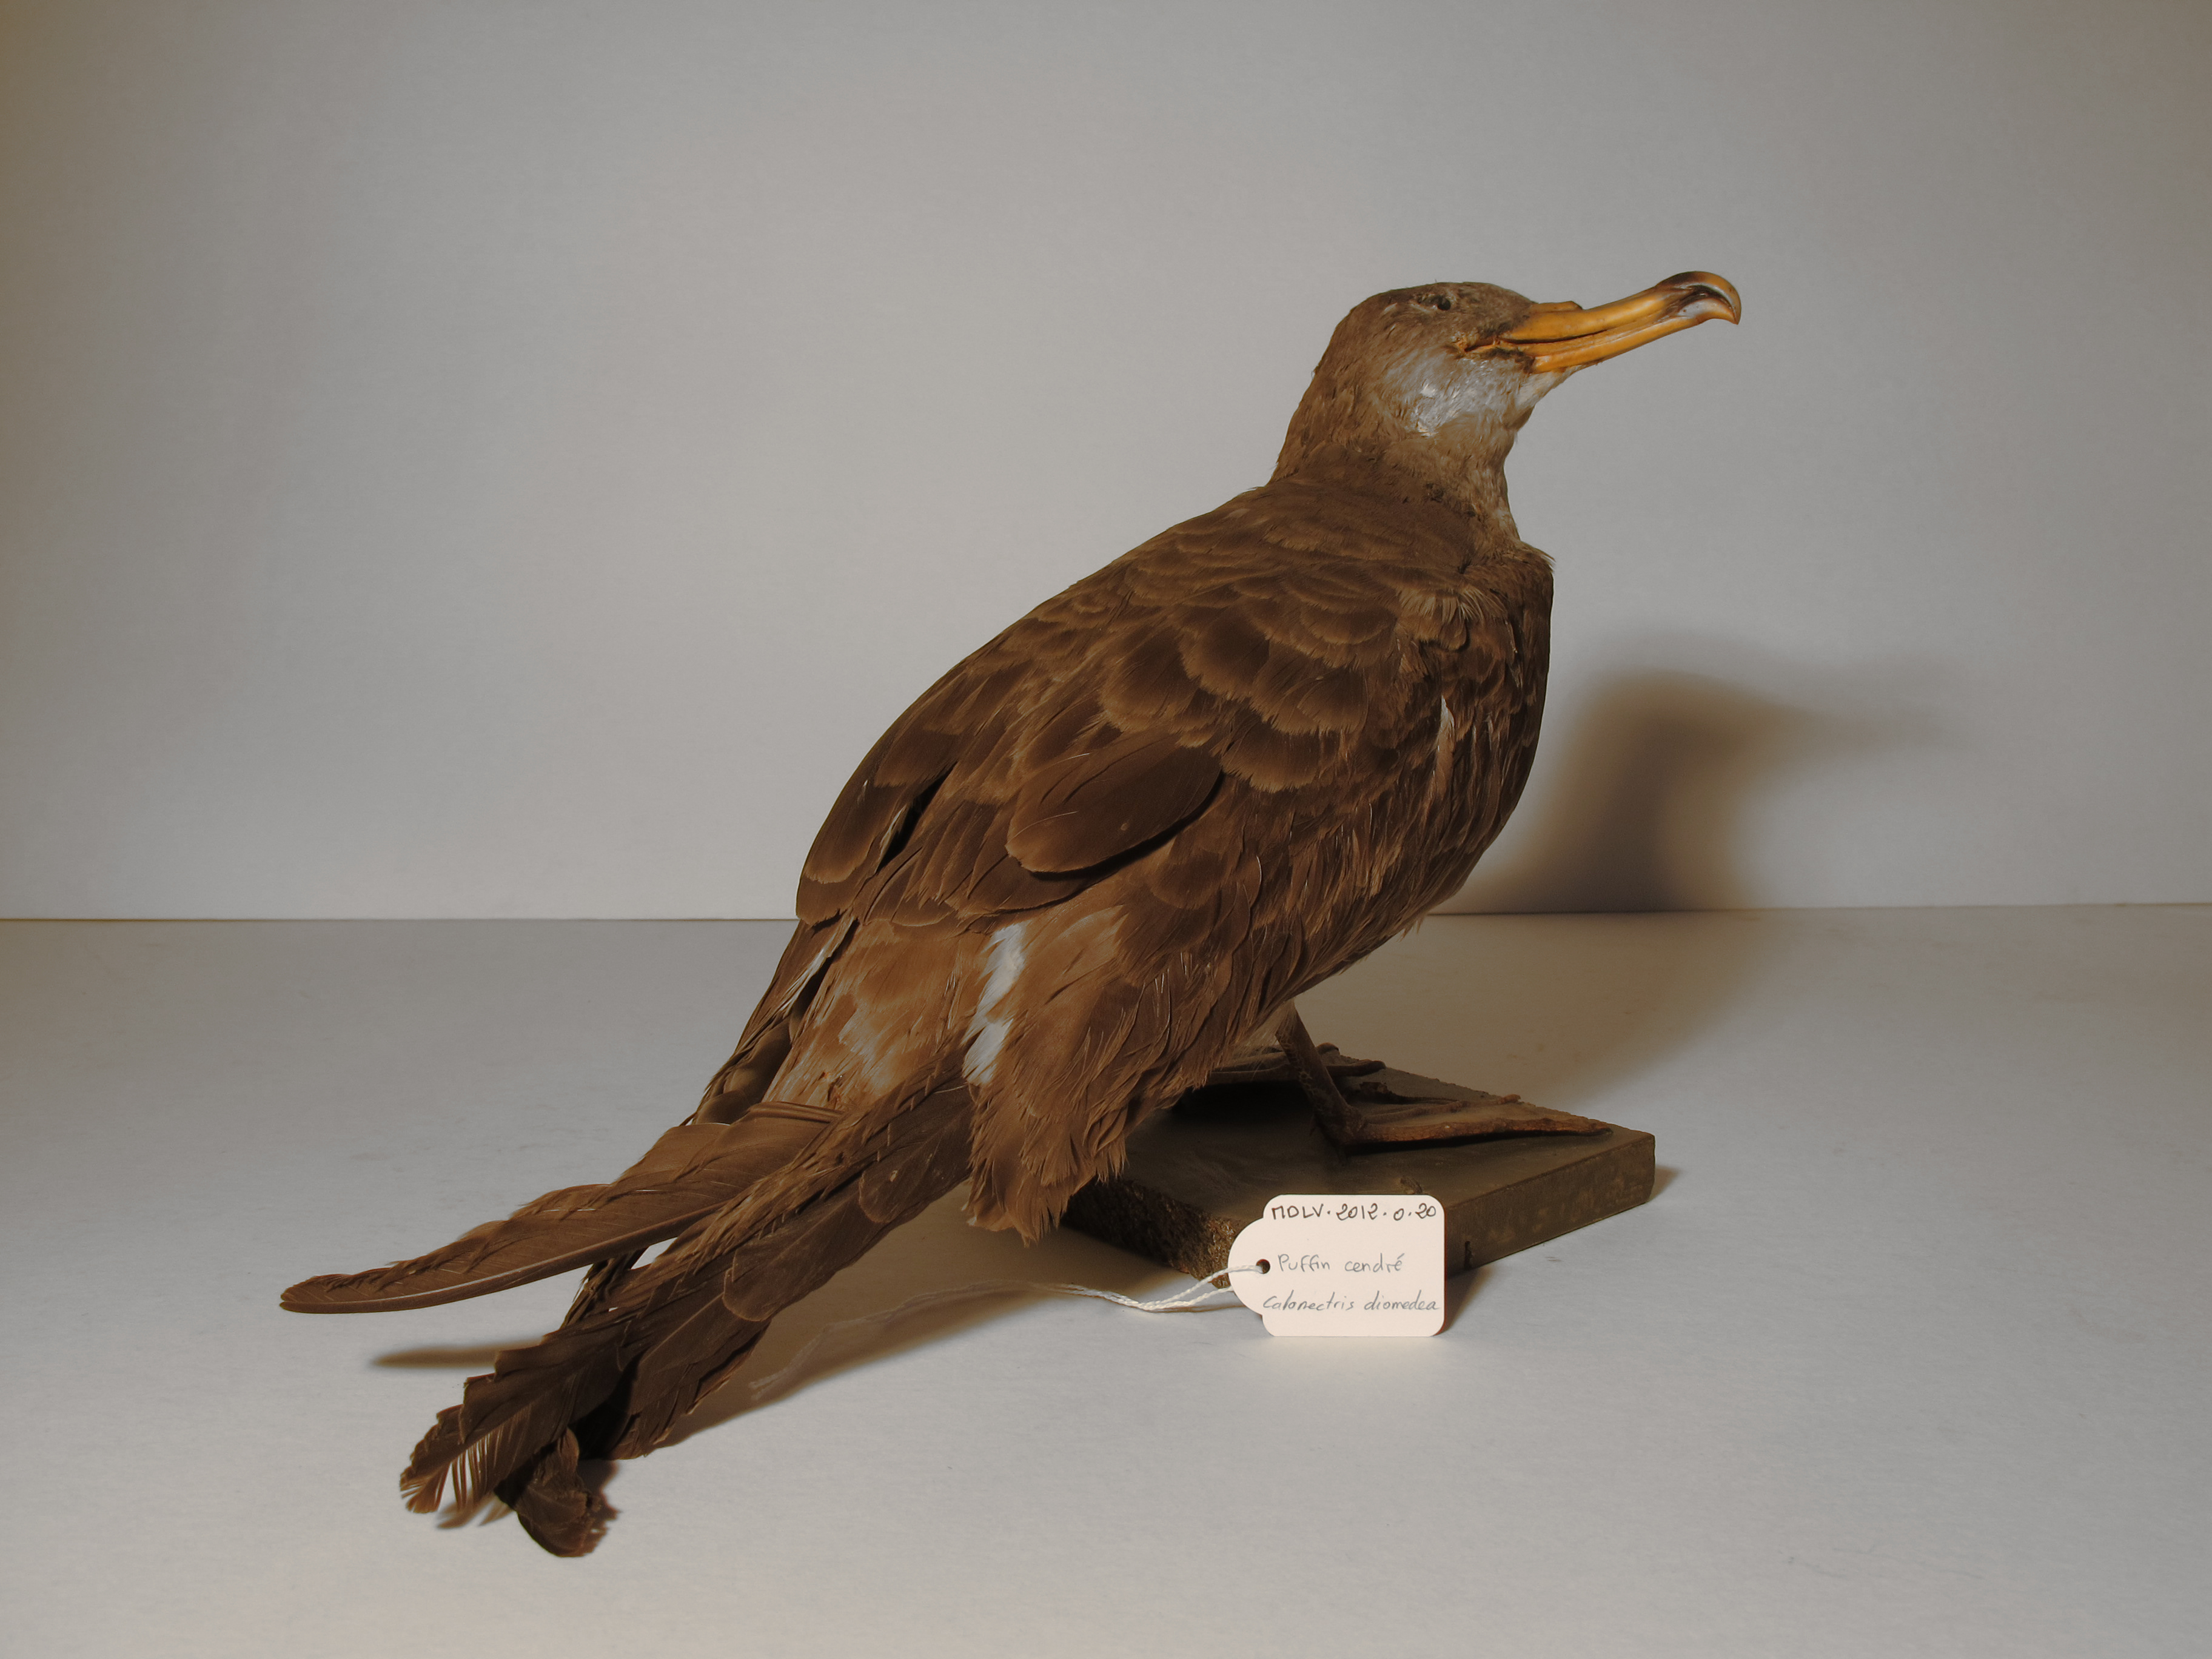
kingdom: Animalia
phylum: Chordata
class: Aves
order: Procellariiformes
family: Procellariidae
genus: Calonectris
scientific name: Calonectris diomedea
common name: Cory's Shearwater
